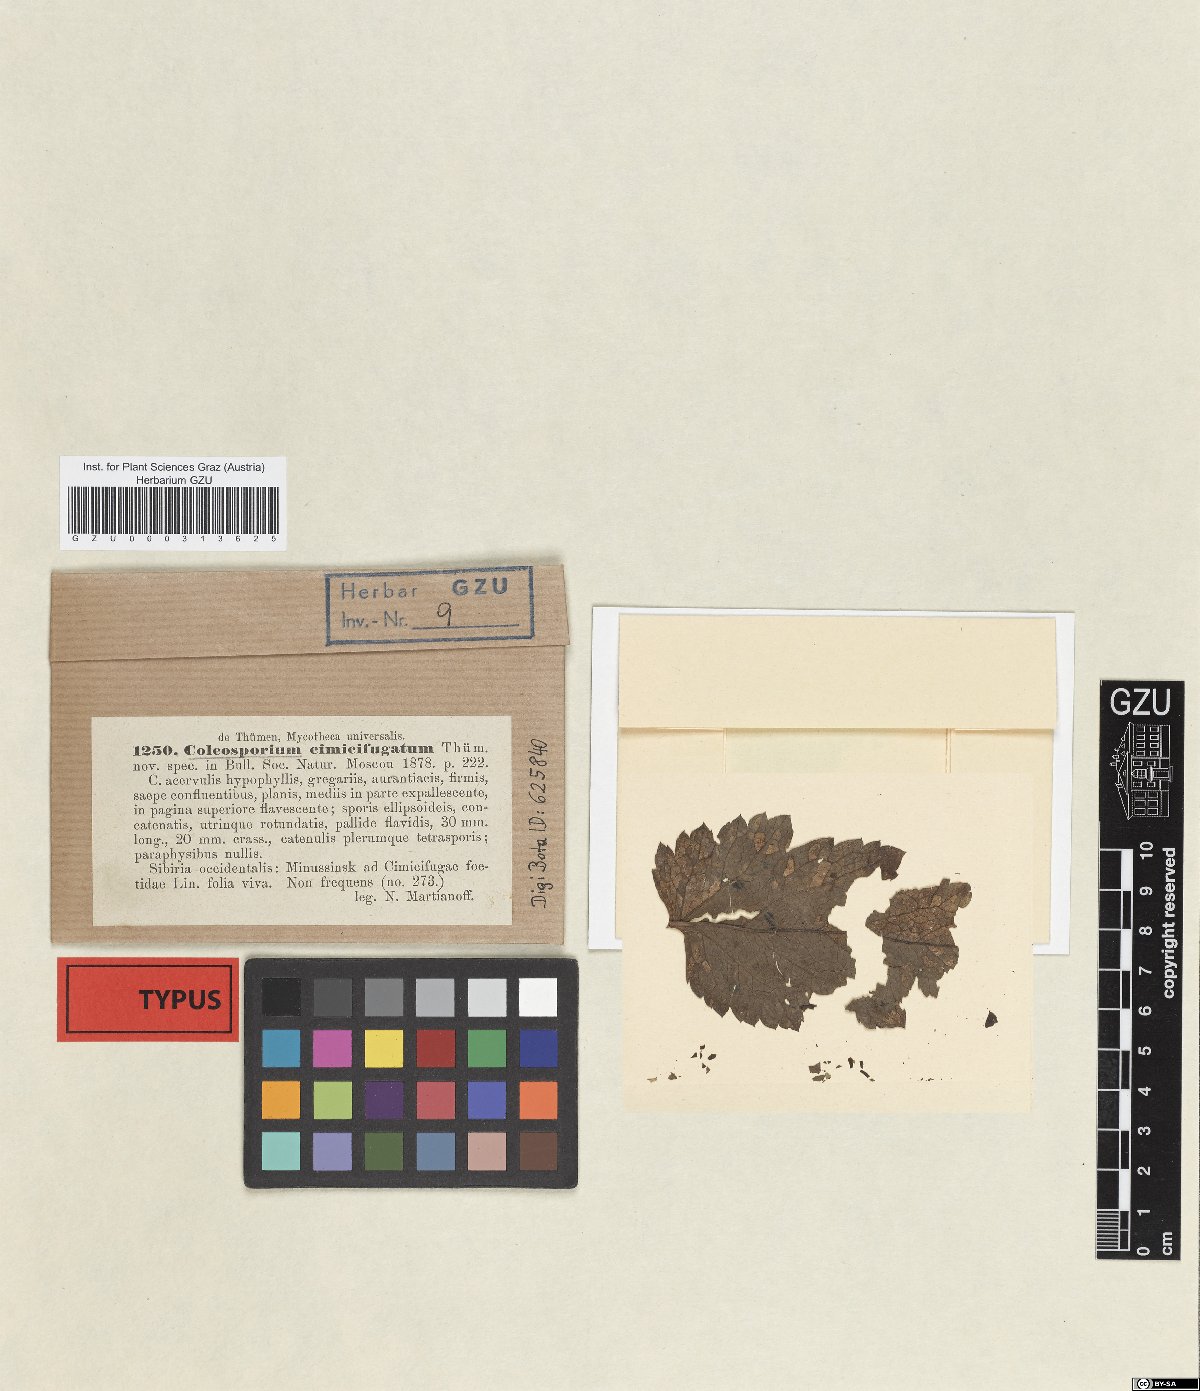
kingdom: Fungi
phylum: Basidiomycota
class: Pucciniomycetes
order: Pucciniales
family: Coleosporiaceae
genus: Coleosporium
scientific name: Coleosporium cimicifugatum
